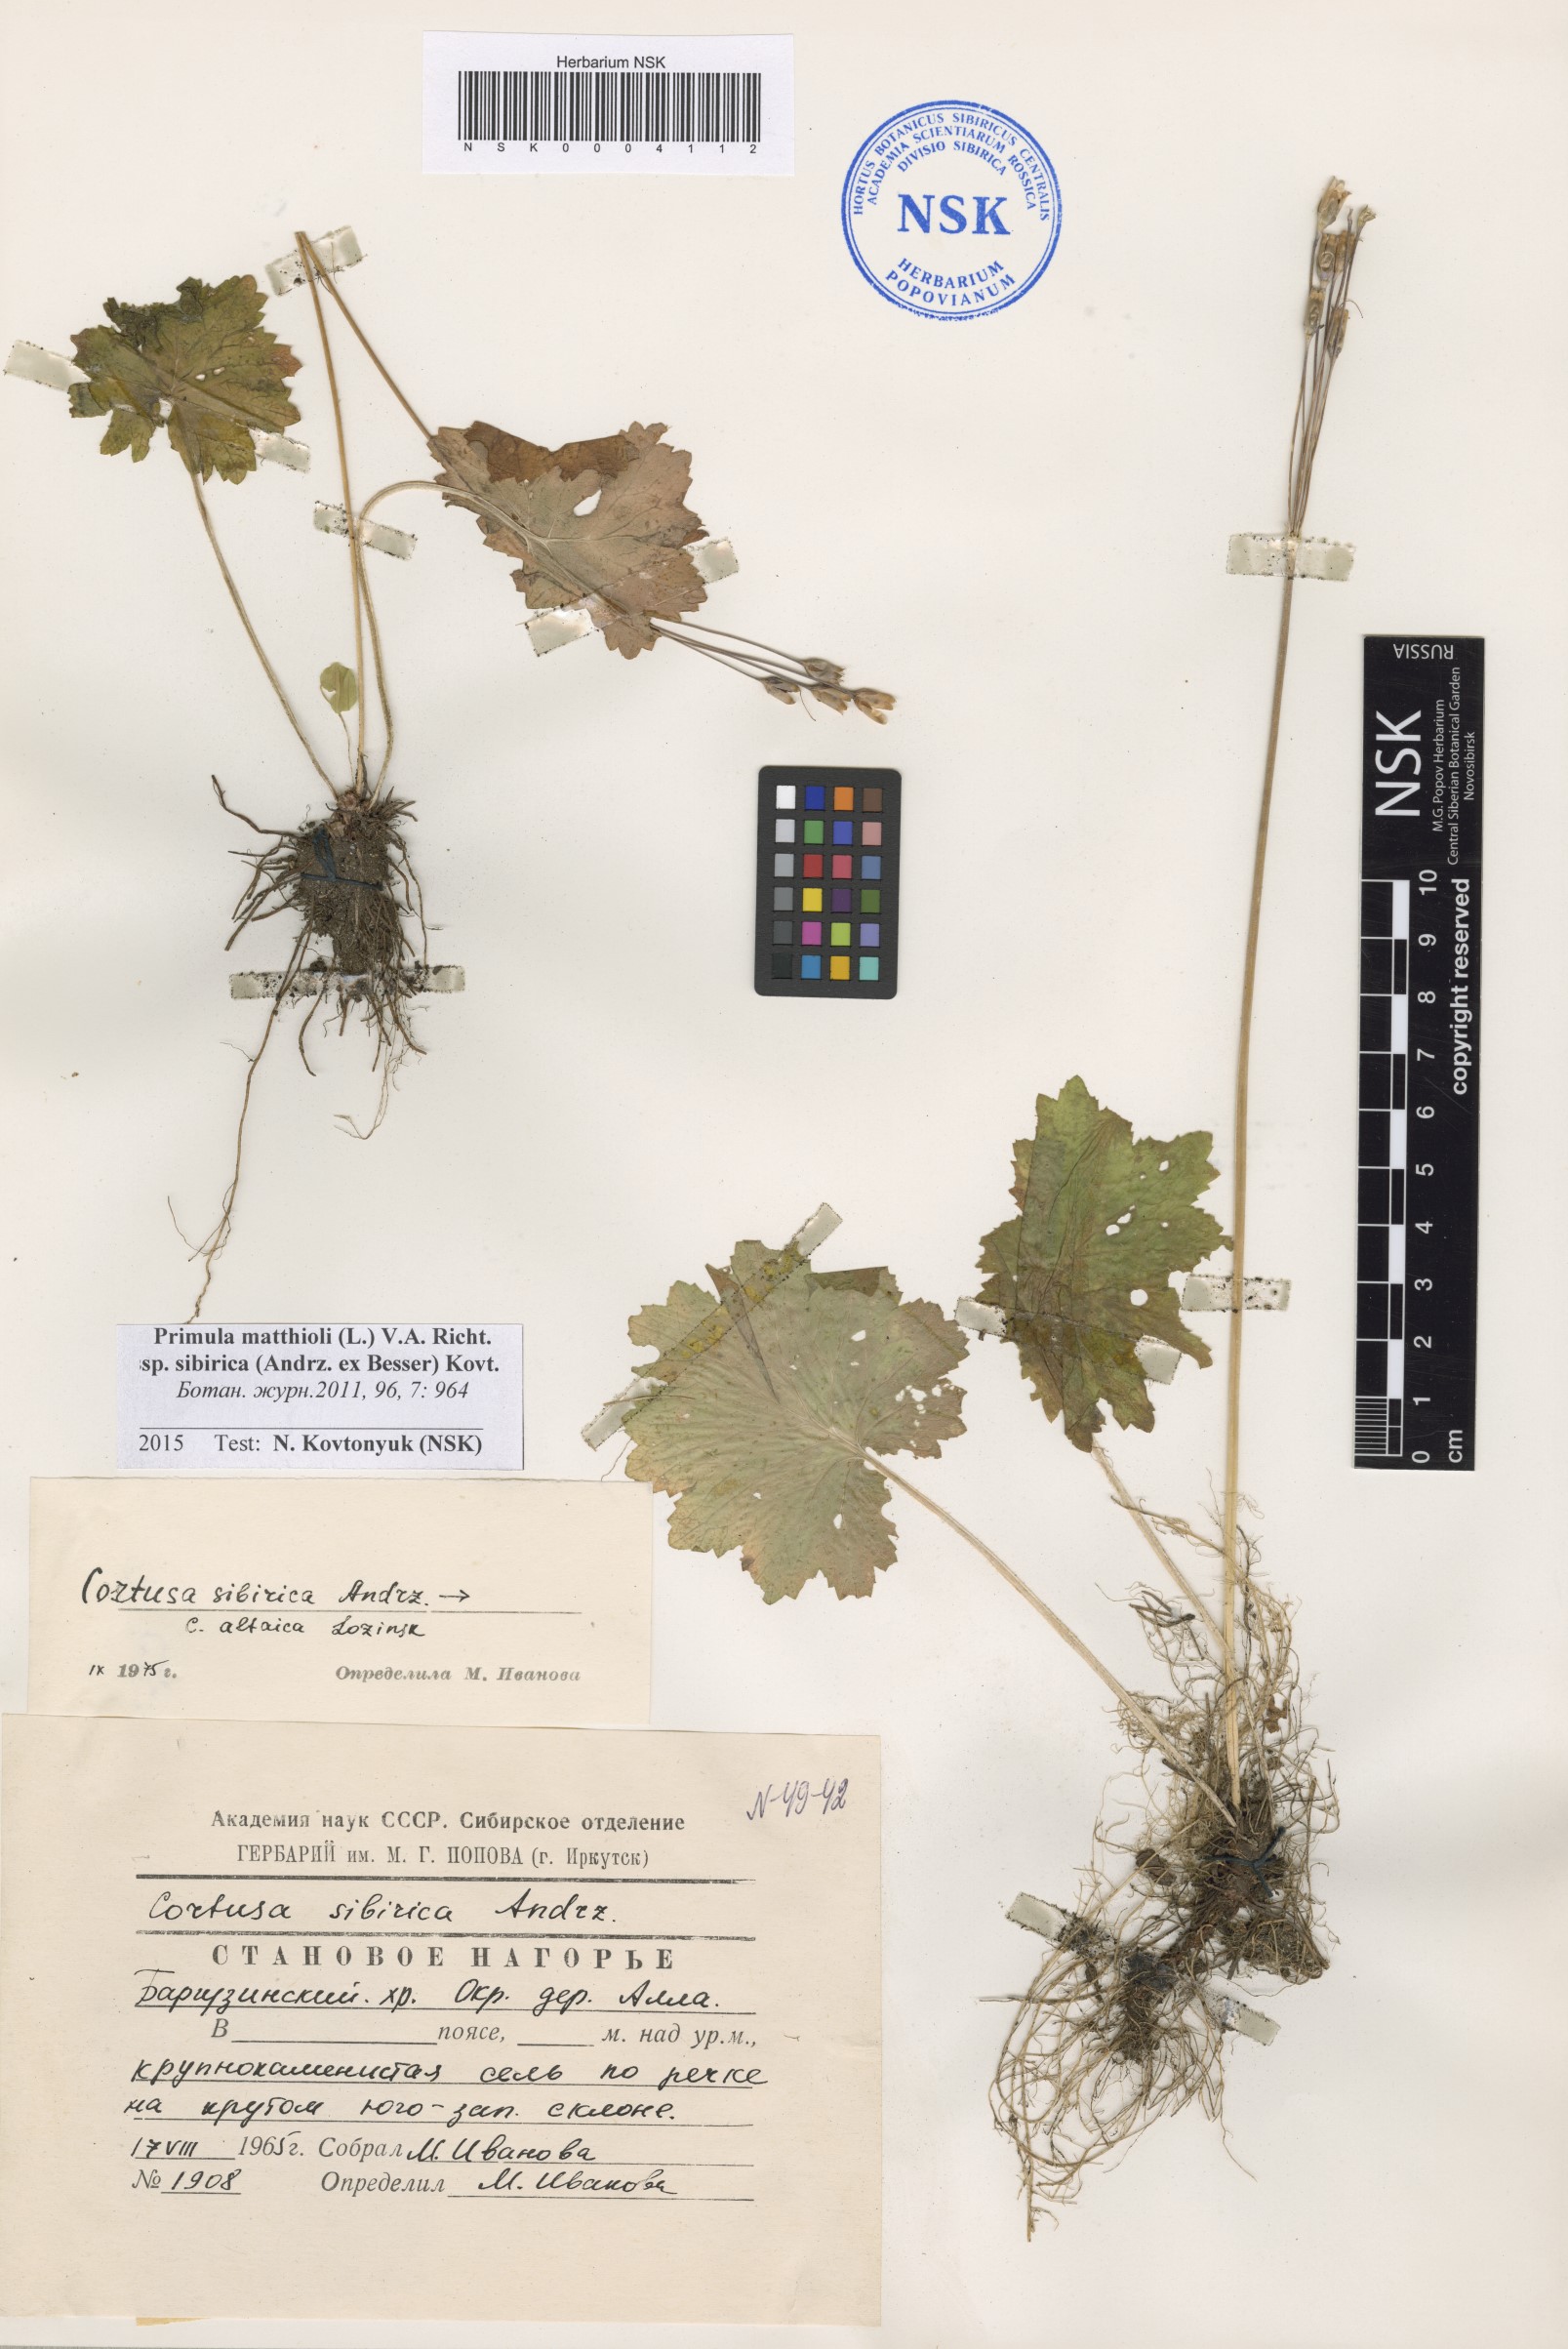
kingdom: Plantae
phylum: Tracheophyta
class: Magnoliopsida
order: Ericales
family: Primulaceae
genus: Primula
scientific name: Primula matthioli
